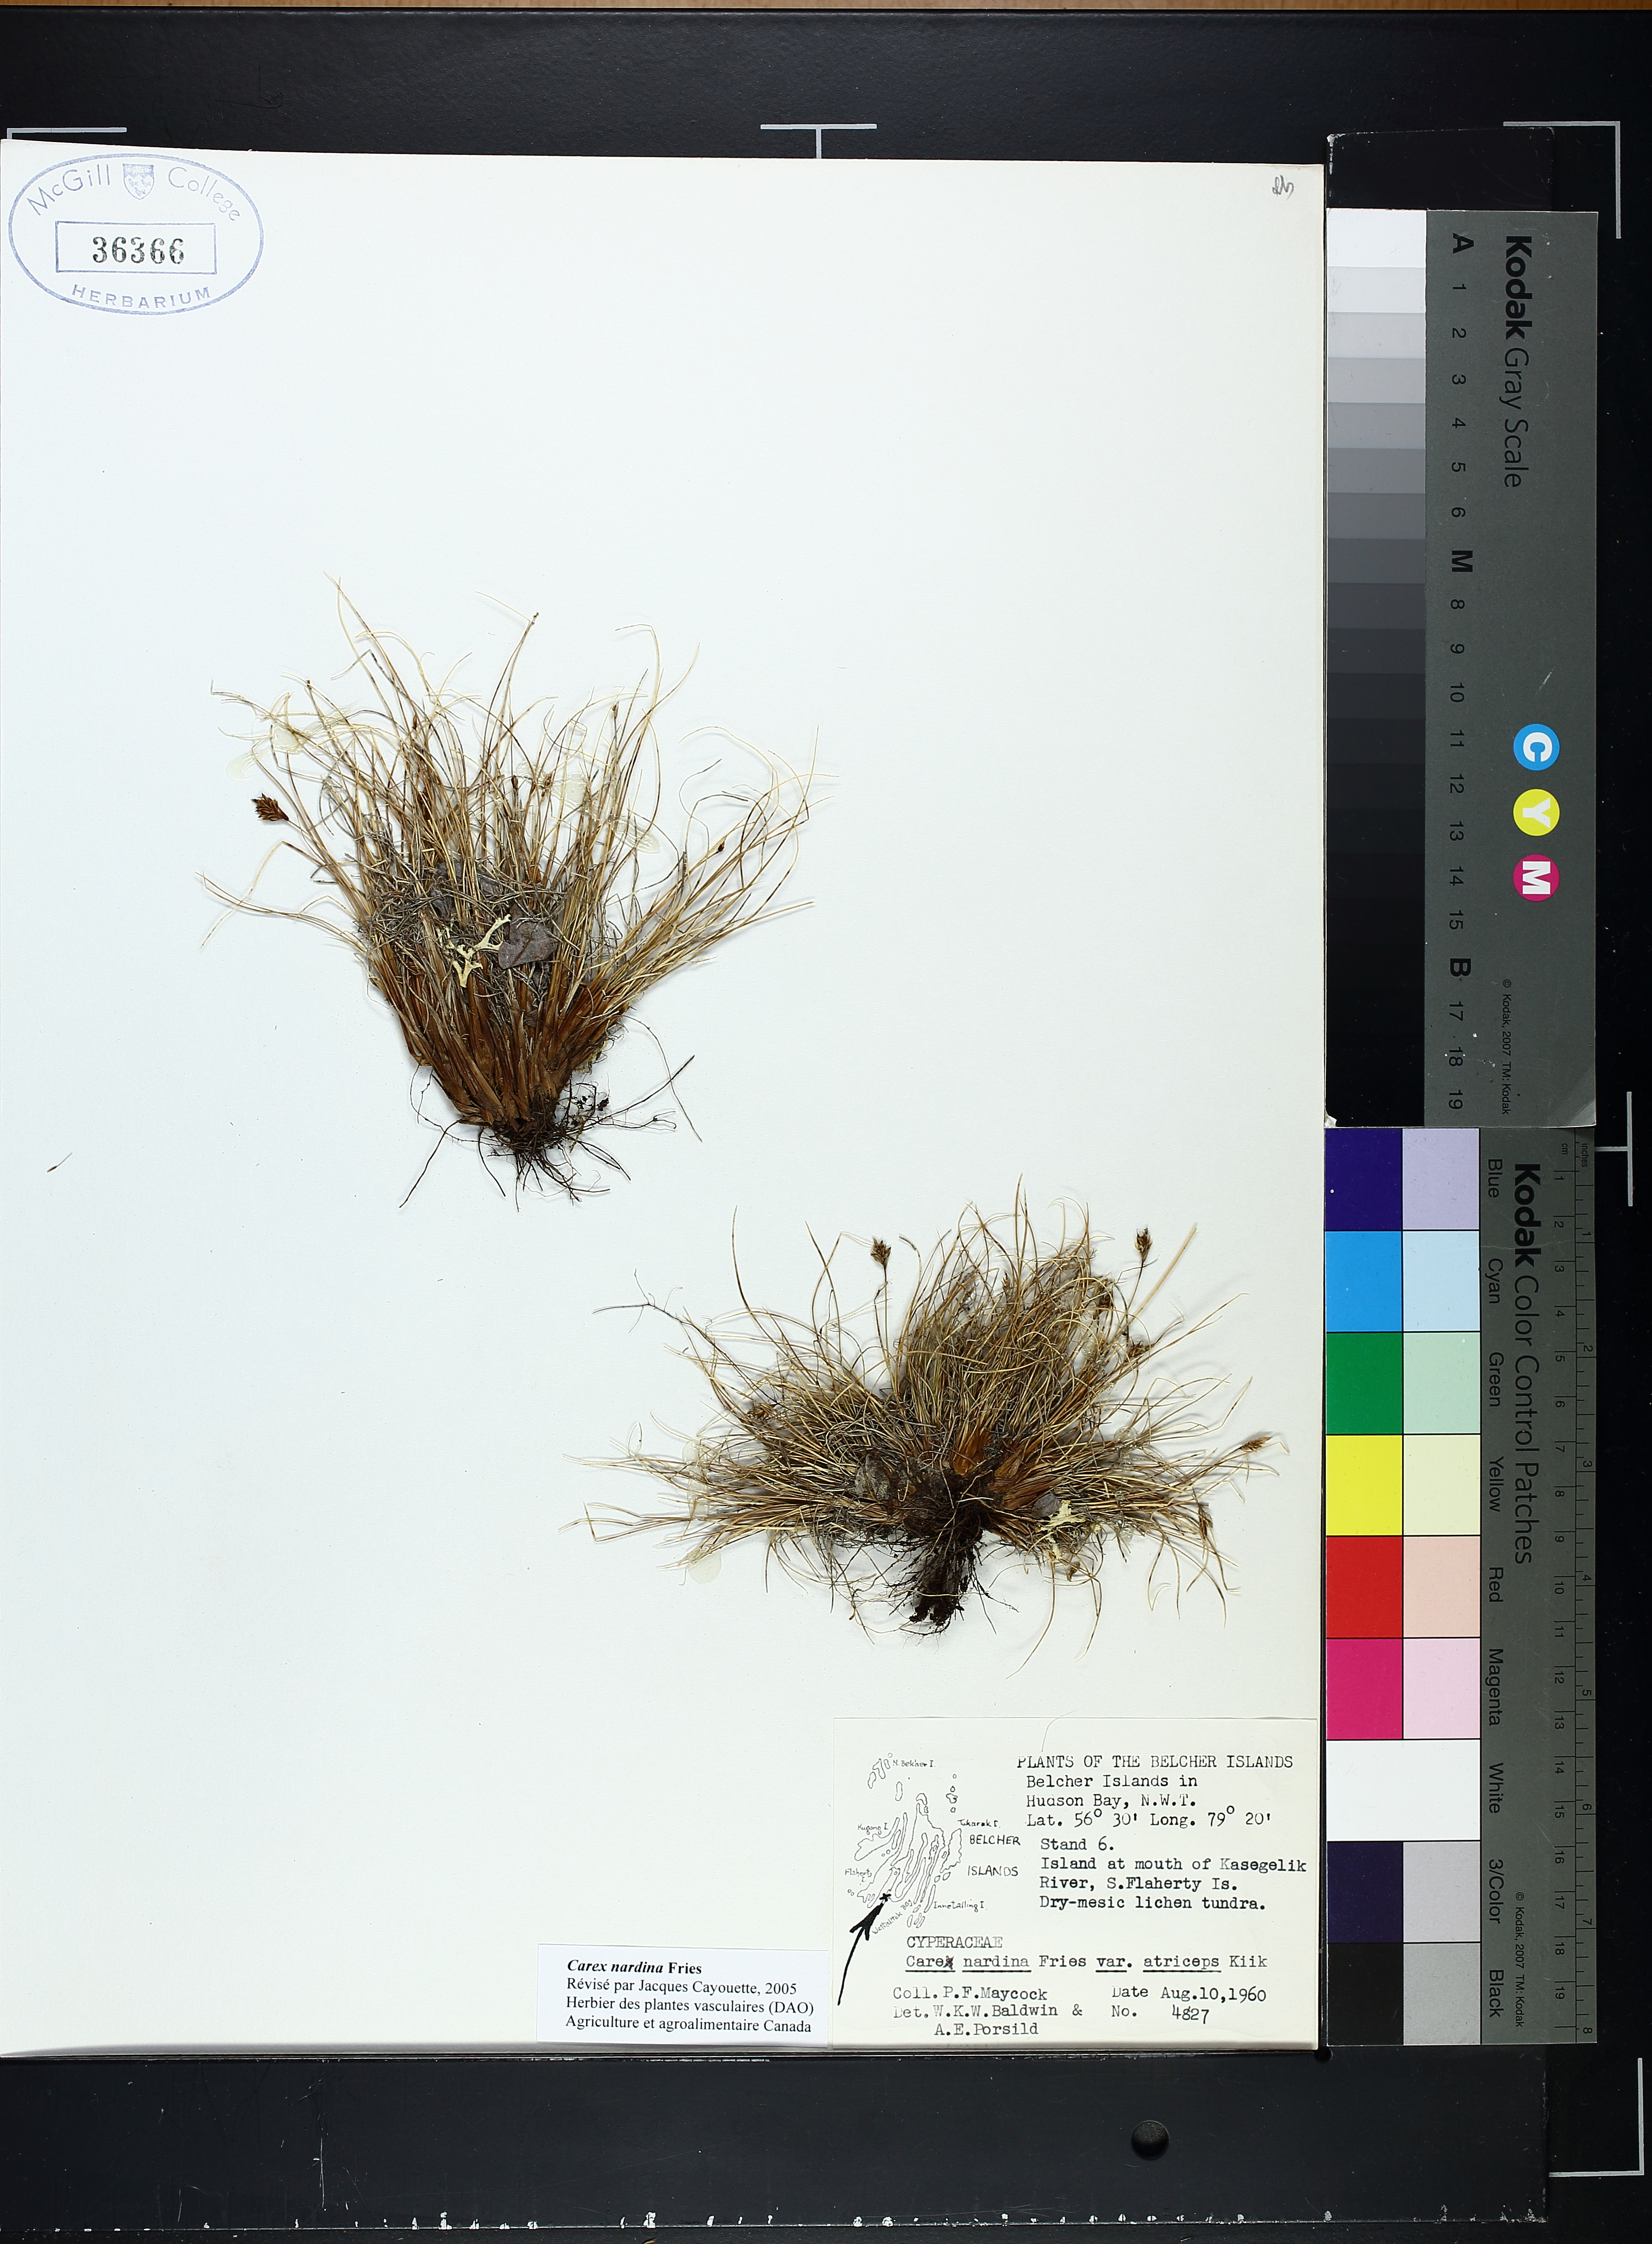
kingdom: Plantae
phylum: Tracheophyta
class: Liliopsida
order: Poales
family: Cyperaceae
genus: Carex
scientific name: Carex nardina
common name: Nard sedge
